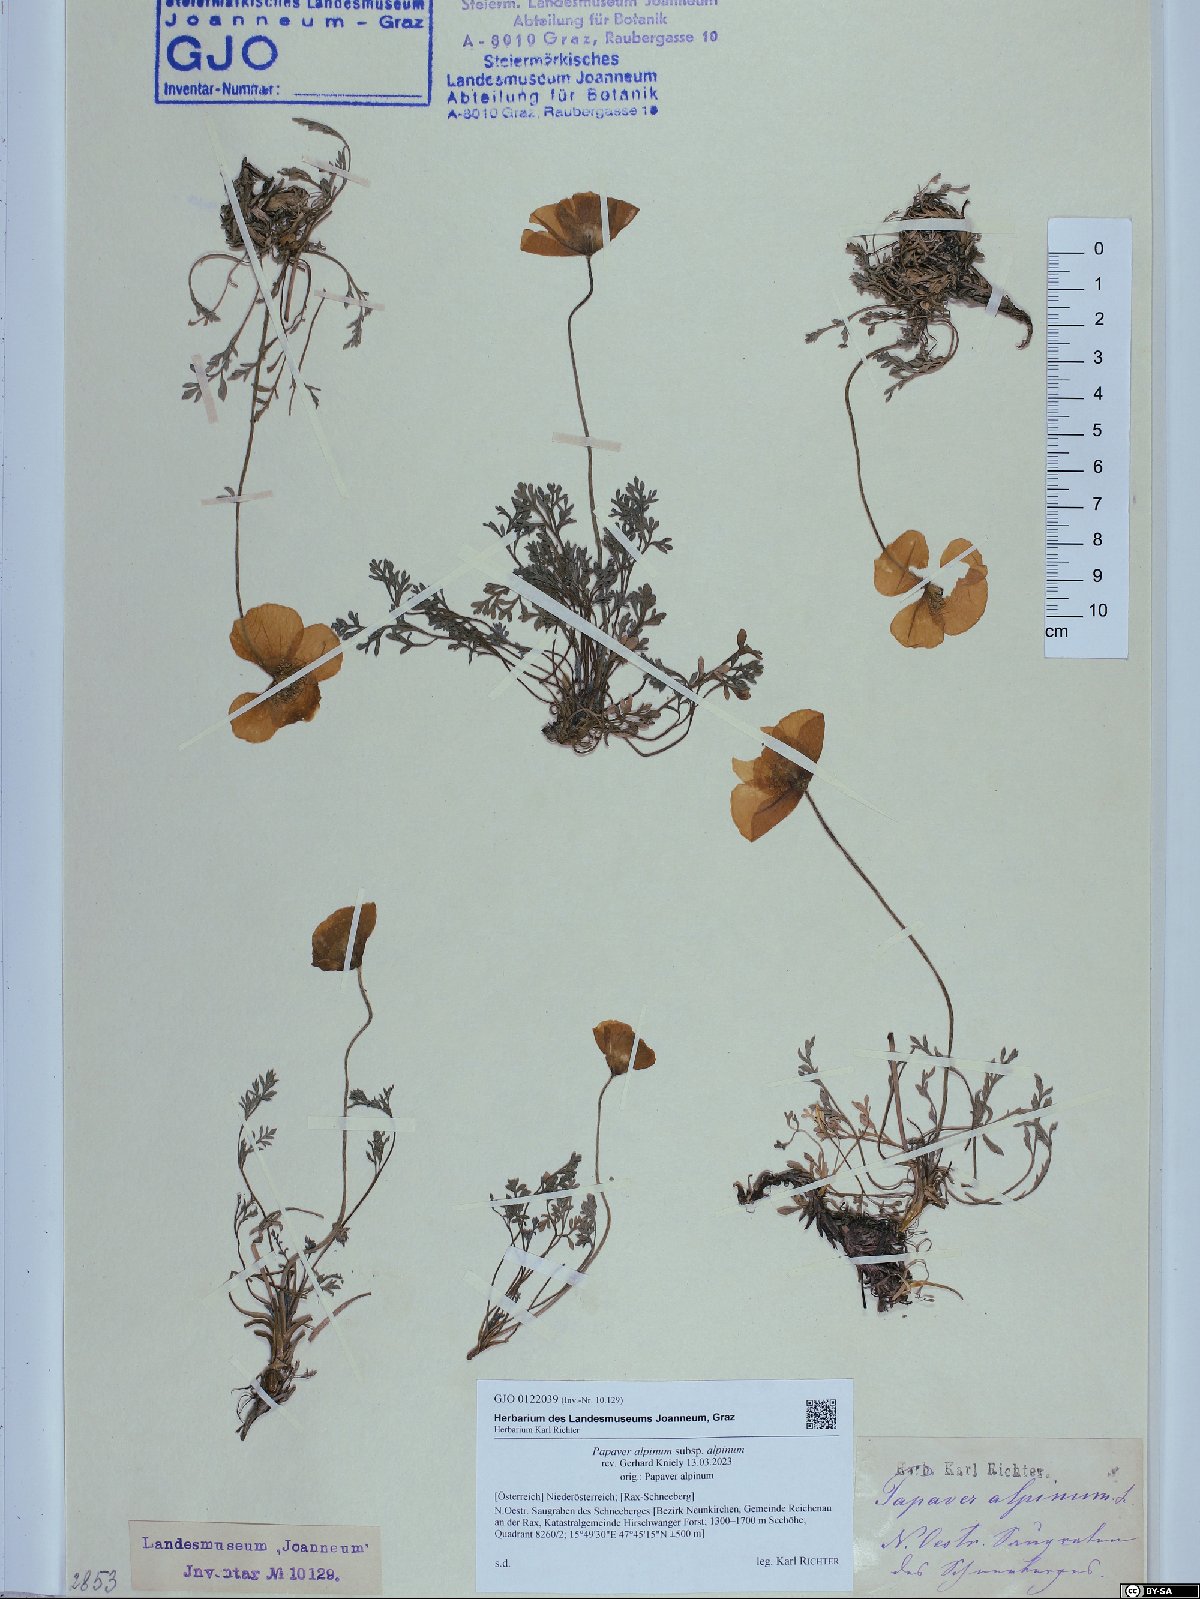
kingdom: Plantae
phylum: Tracheophyta
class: Magnoliopsida
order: Ranunculales
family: Papaveraceae
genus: Papaver
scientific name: Papaver alpinum
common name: Austrian poppy
